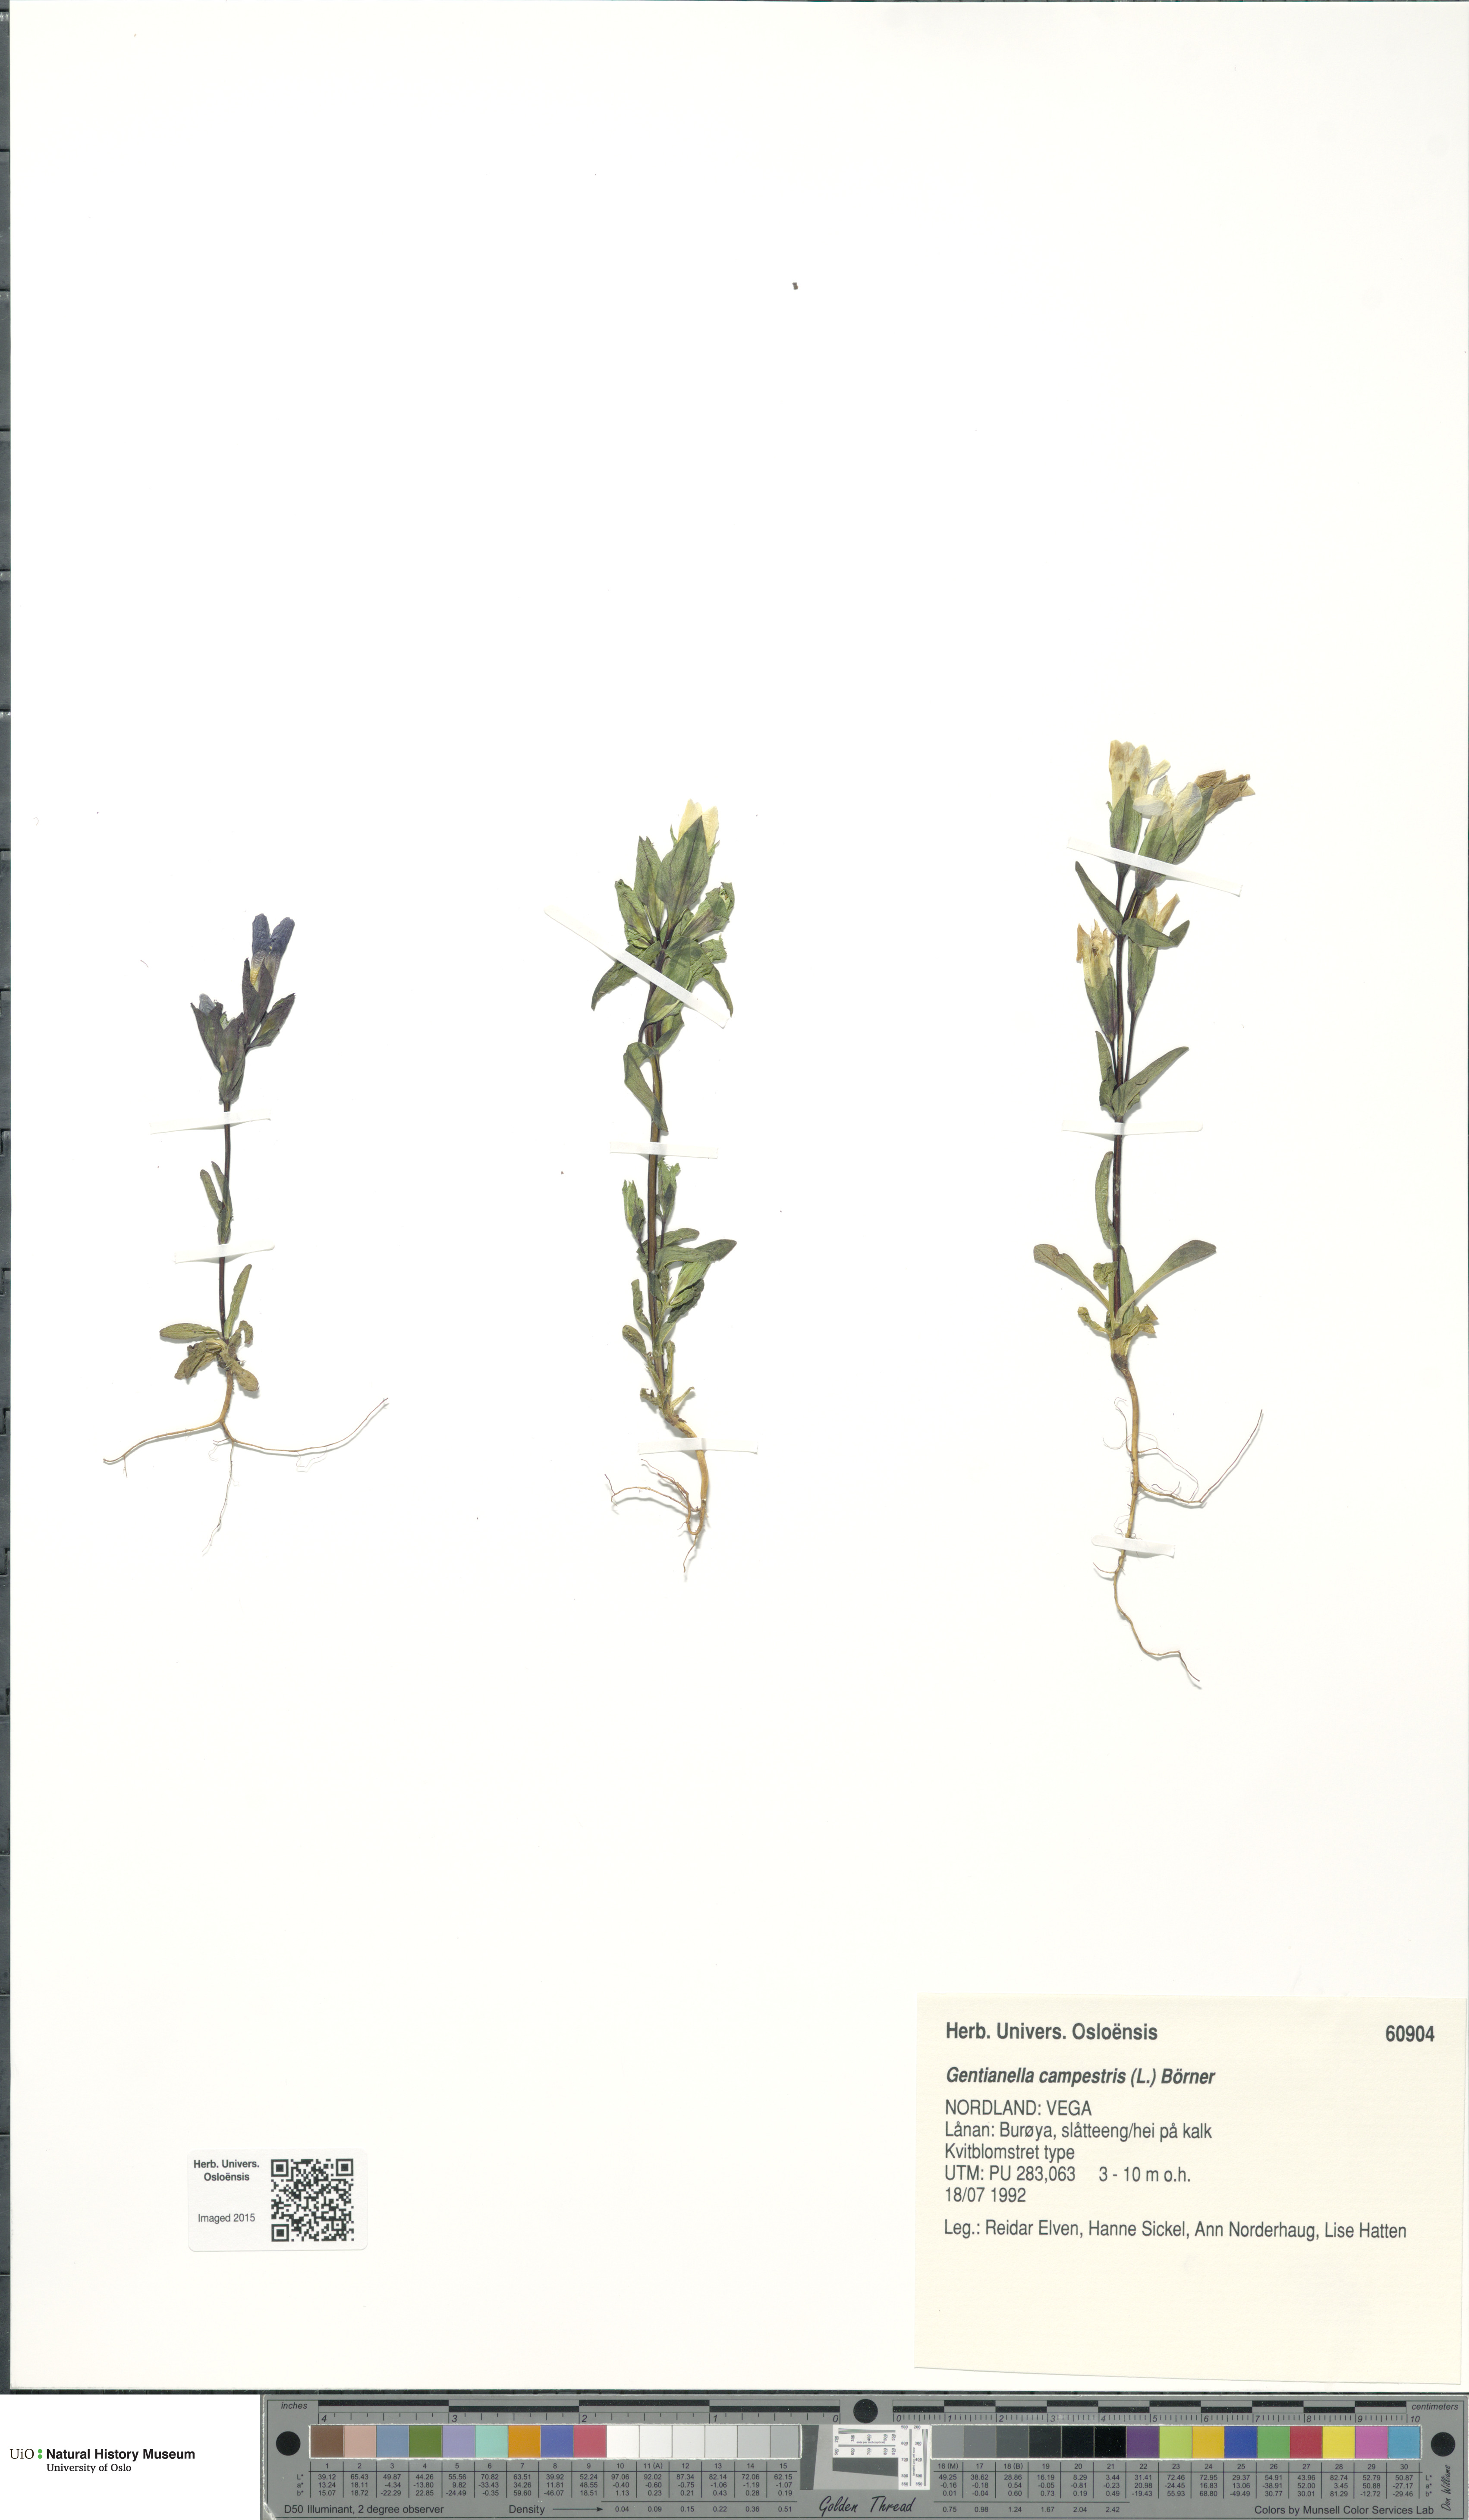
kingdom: Plantae
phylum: Tracheophyta
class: Magnoliopsida
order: Gentianales
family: Gentianaceae
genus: Gentianella
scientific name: Gentianella campestris
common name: Field gentian
